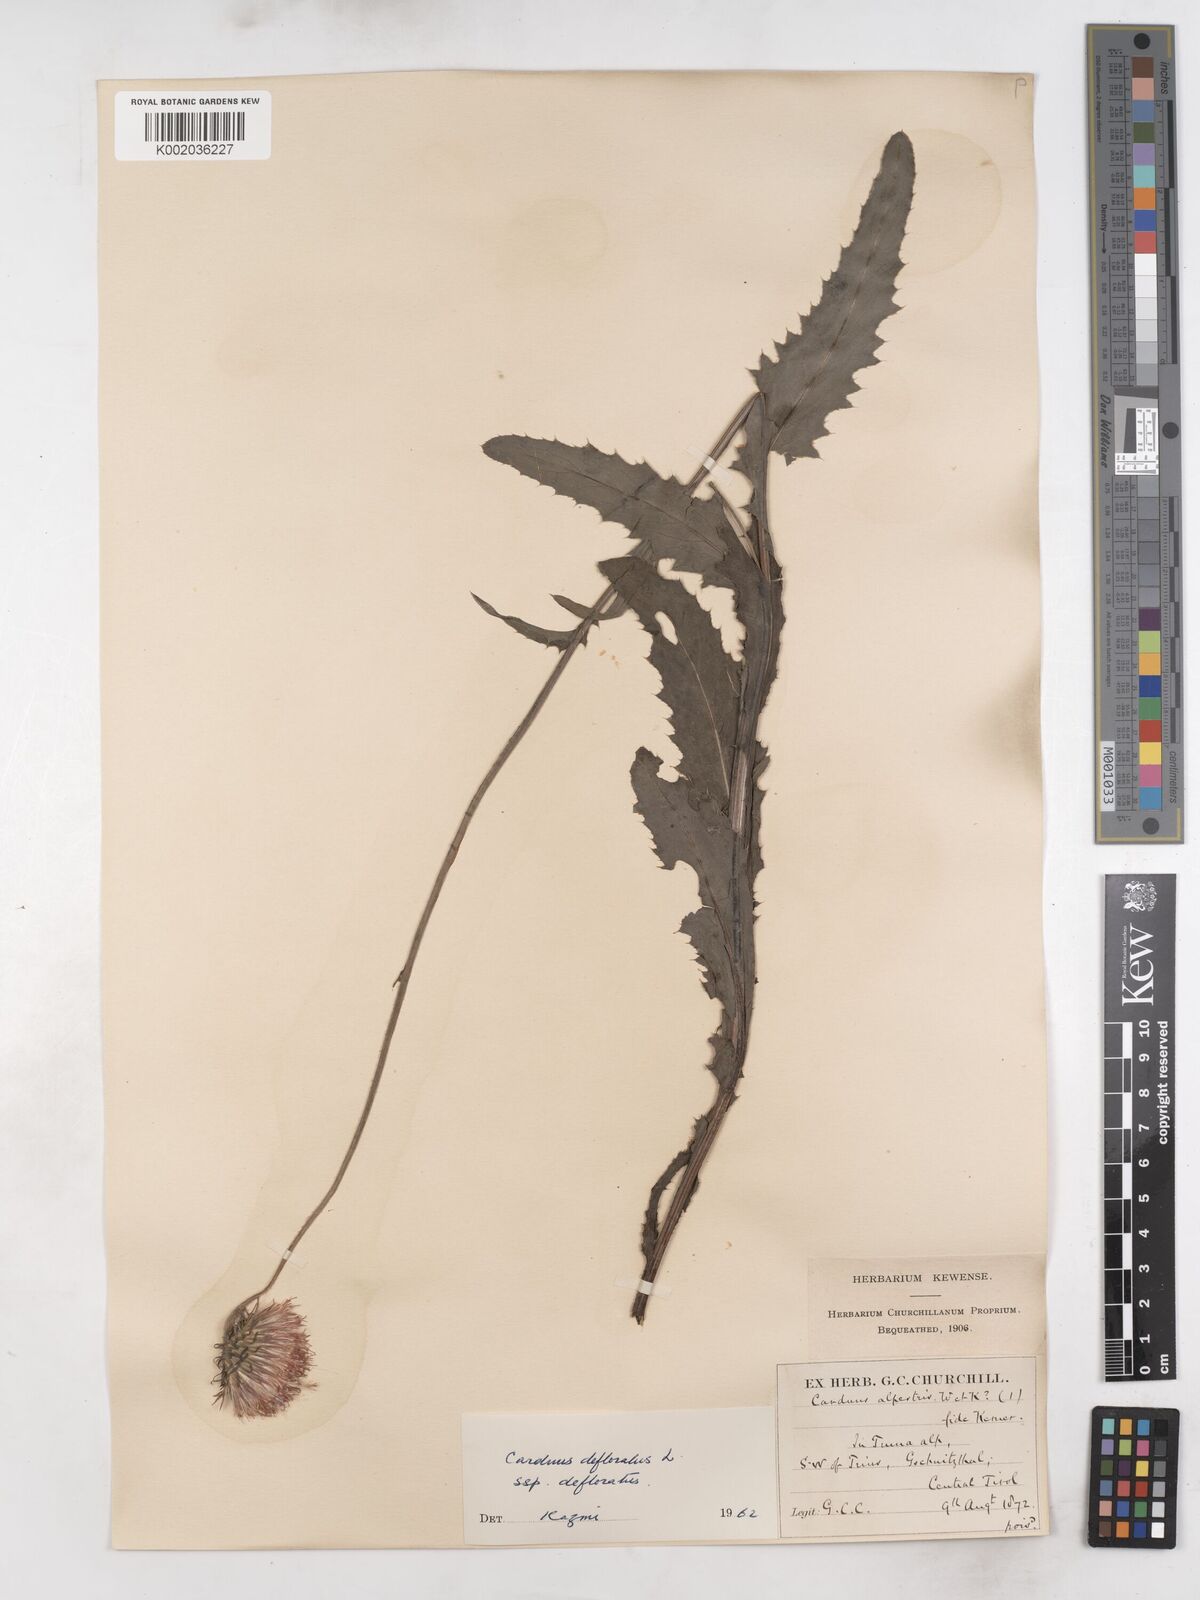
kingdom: Plantae
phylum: Tracheophyta
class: Magnoliopsida
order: Asterales
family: Asteraceae
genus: Carduus
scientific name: Carduus defloratus
